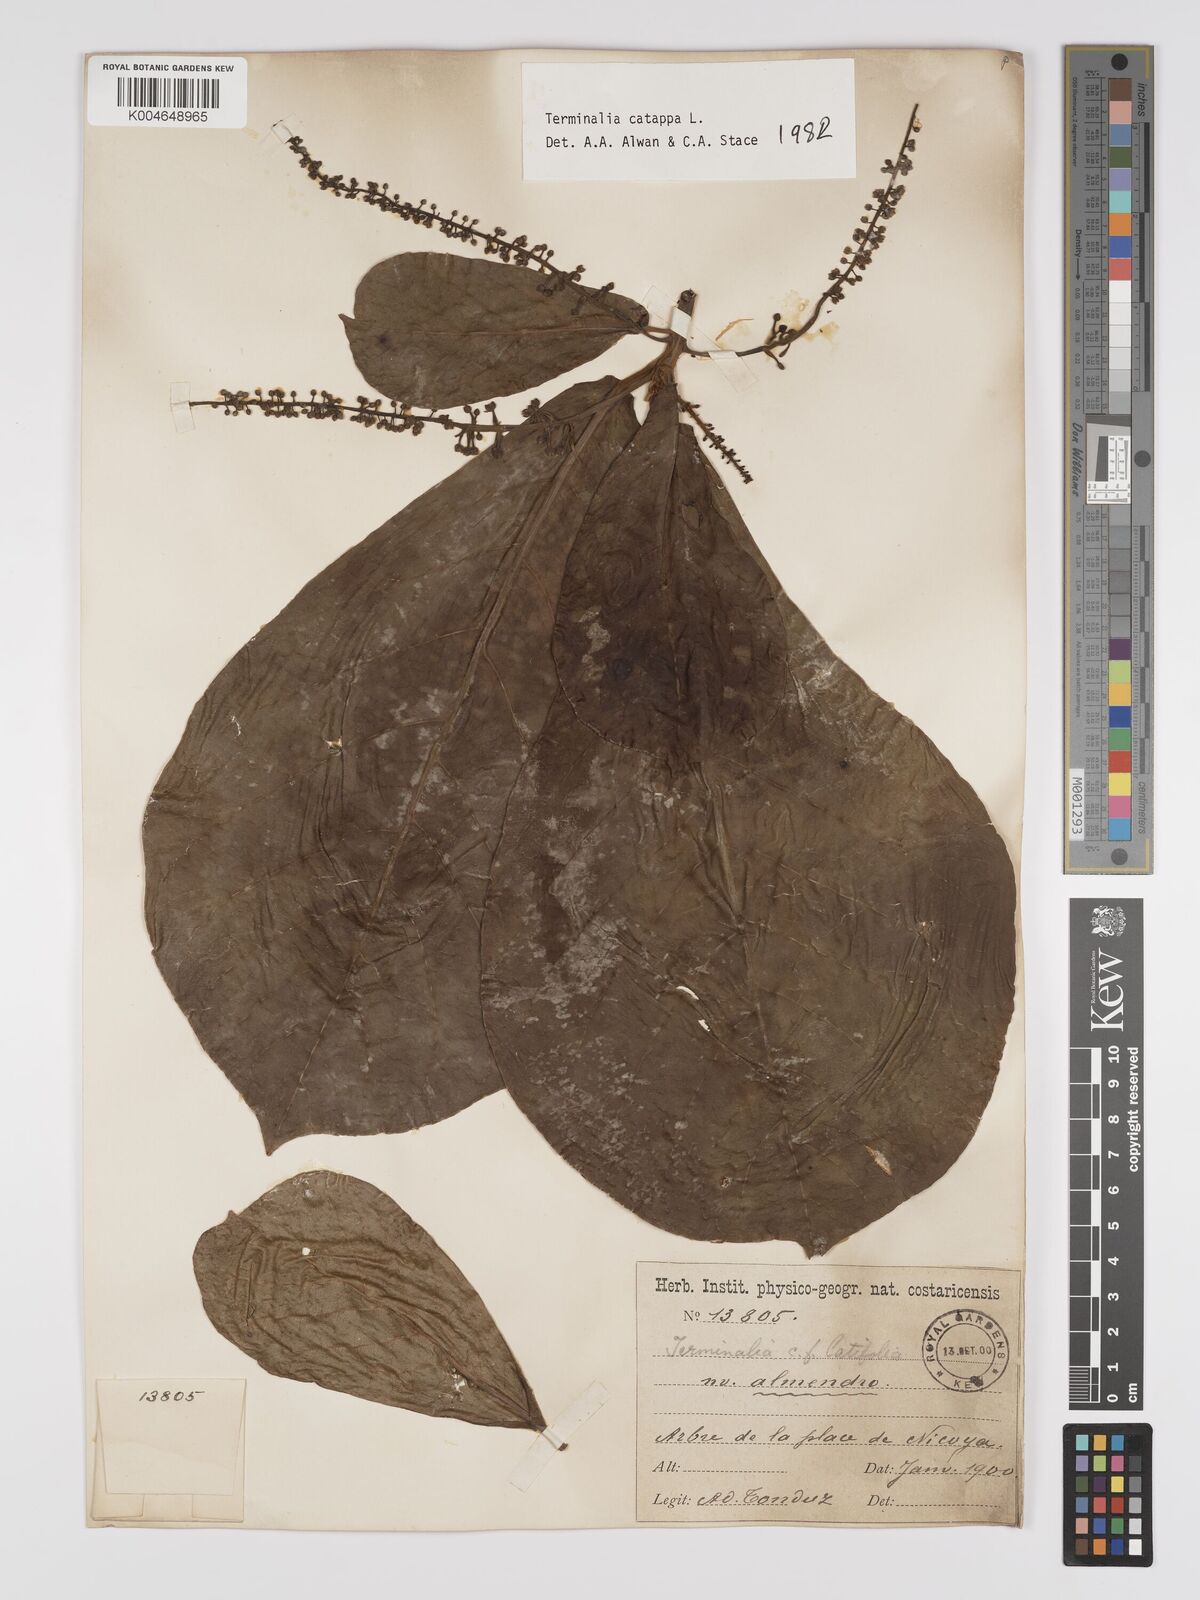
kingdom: Plantae
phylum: Tracheophyta
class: Magnoliopsida
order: Myrtales
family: Combretaceae
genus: Terminalia
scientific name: Terminalia catappa
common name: Tropical almond
